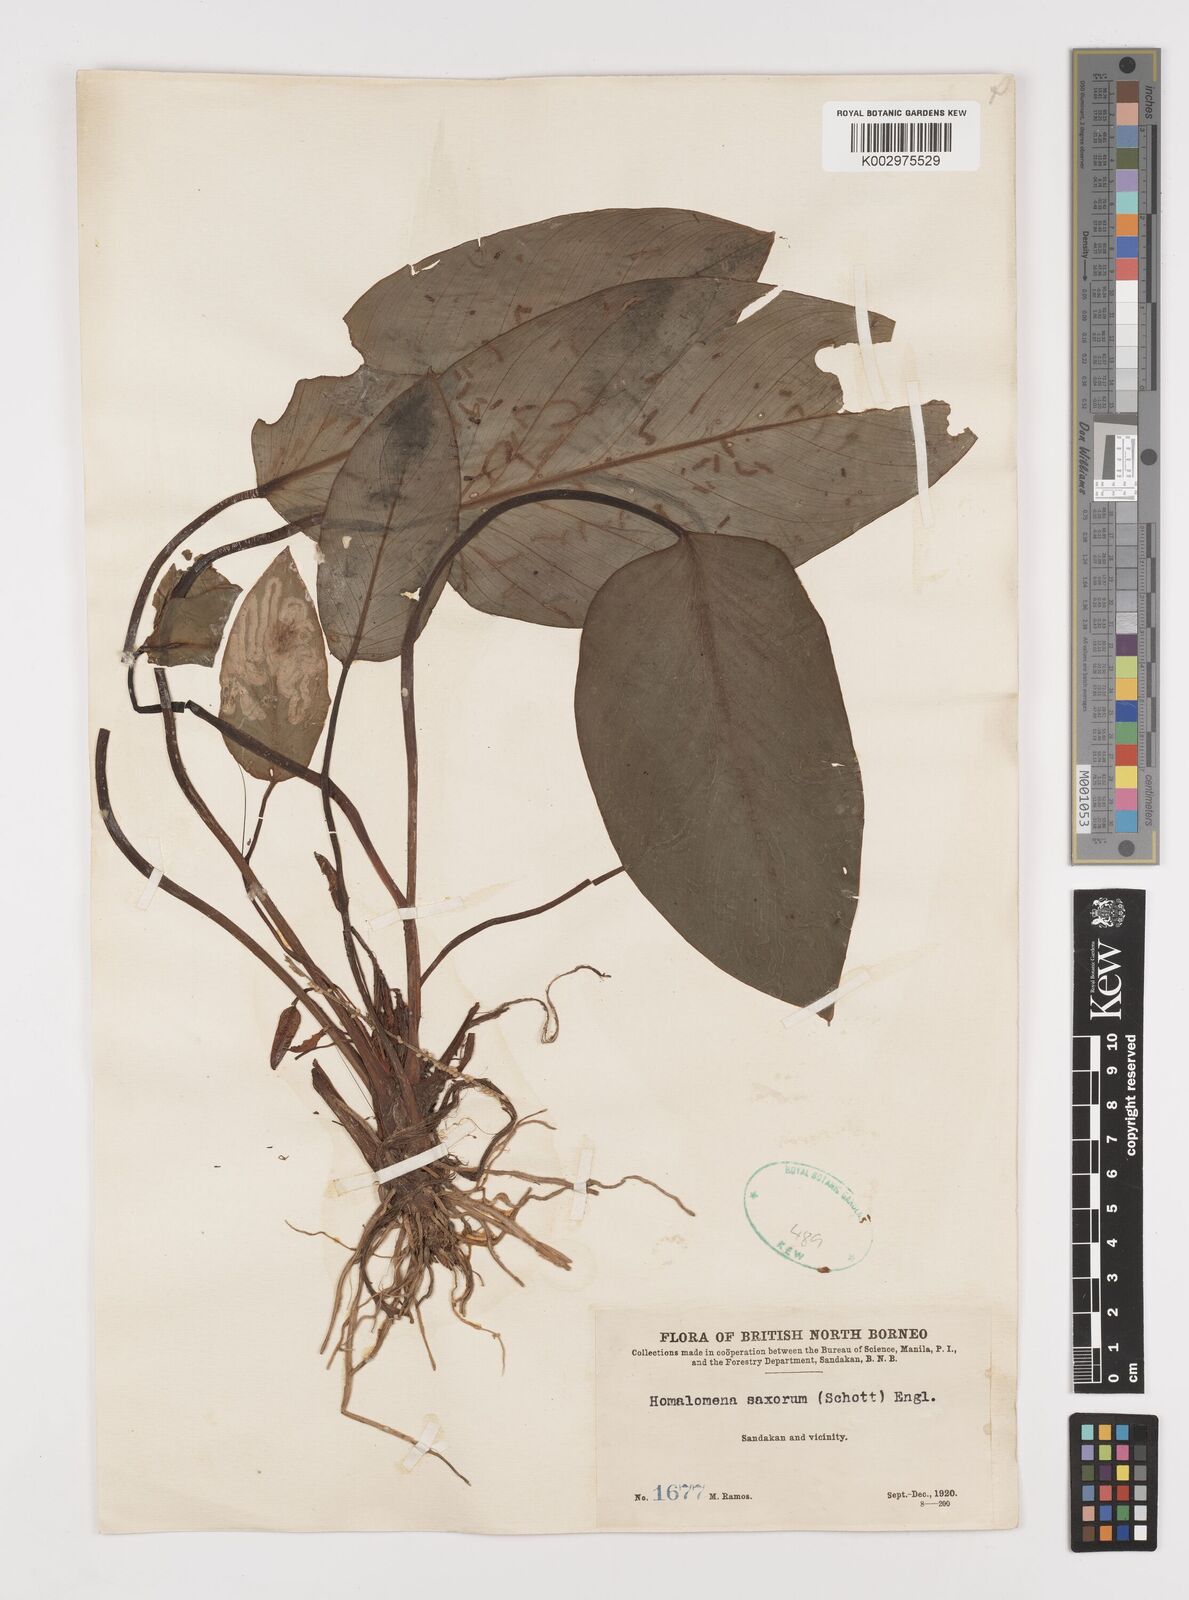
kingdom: Plantae
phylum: Tracheophyta
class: Liliopsida
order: Alismatales
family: Araceae
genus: Homalomena
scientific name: Homalomena saxorum
